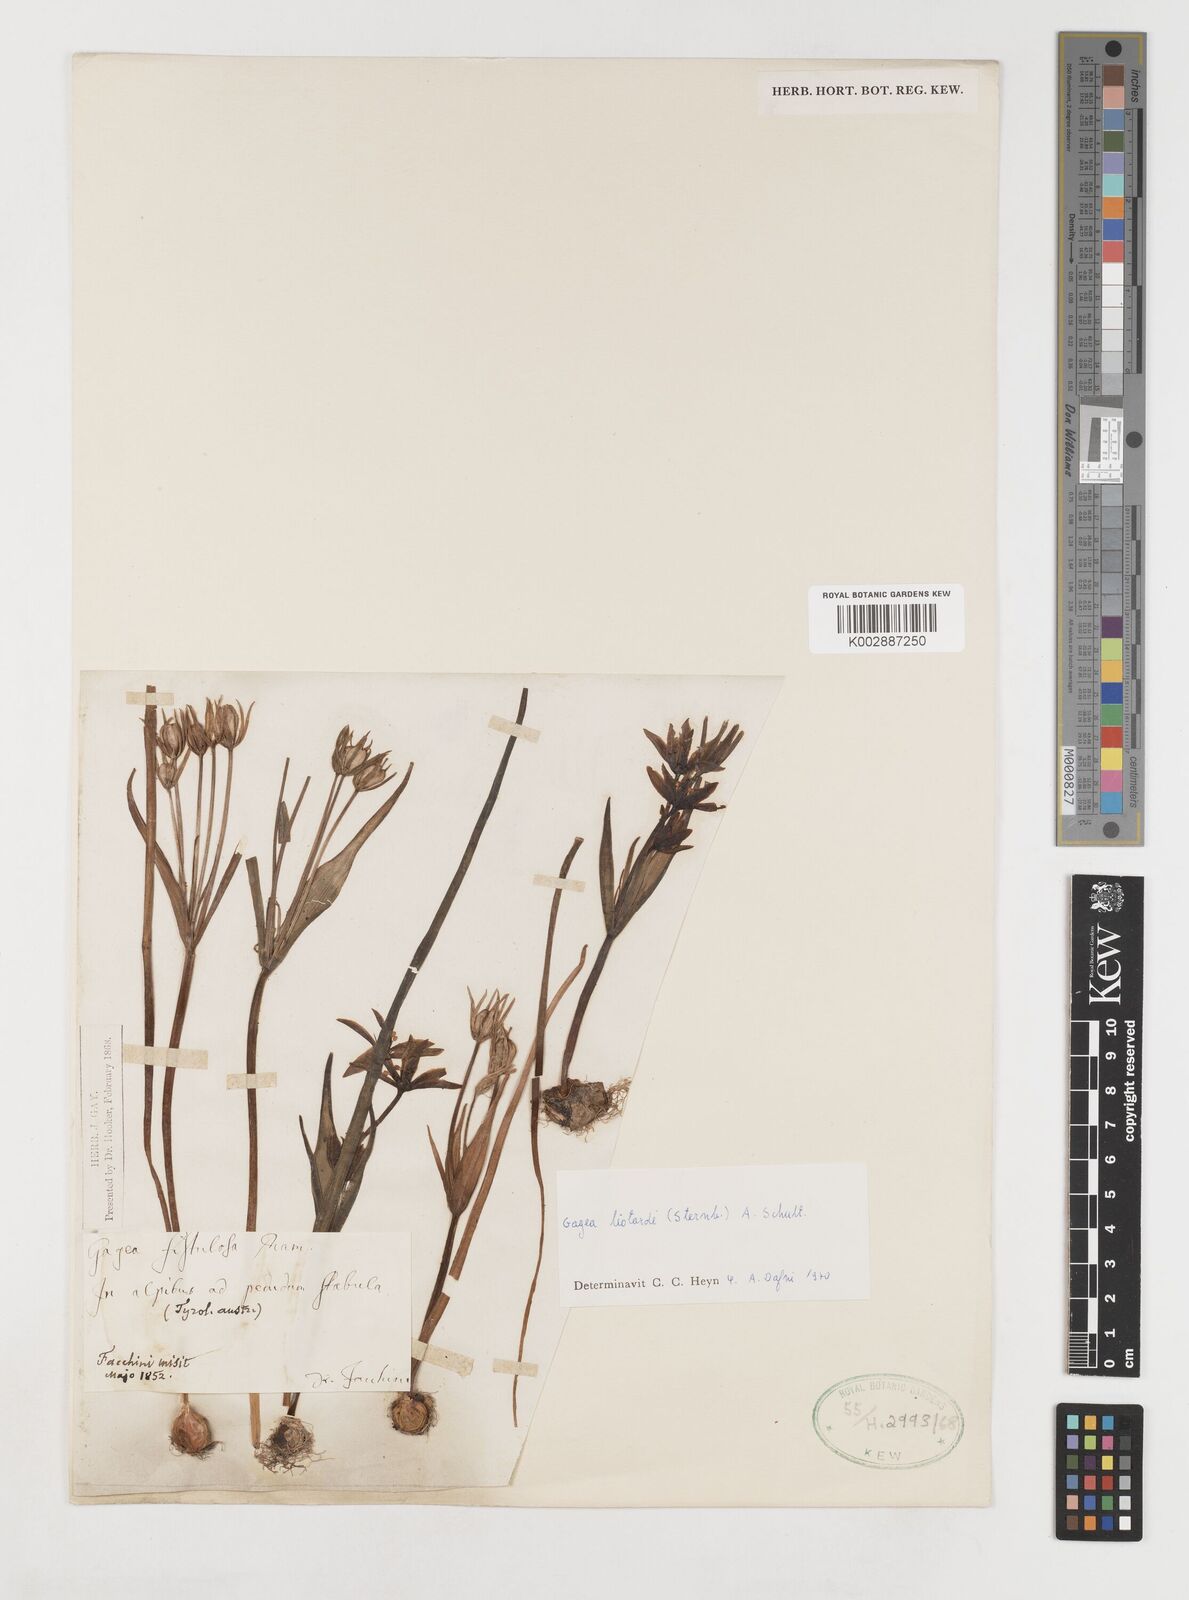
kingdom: Plantae
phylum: Tracheophyta
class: Liliopsida
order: Liliales
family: Liliaceae
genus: Gagea
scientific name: Gagea fragifera
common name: Lily
